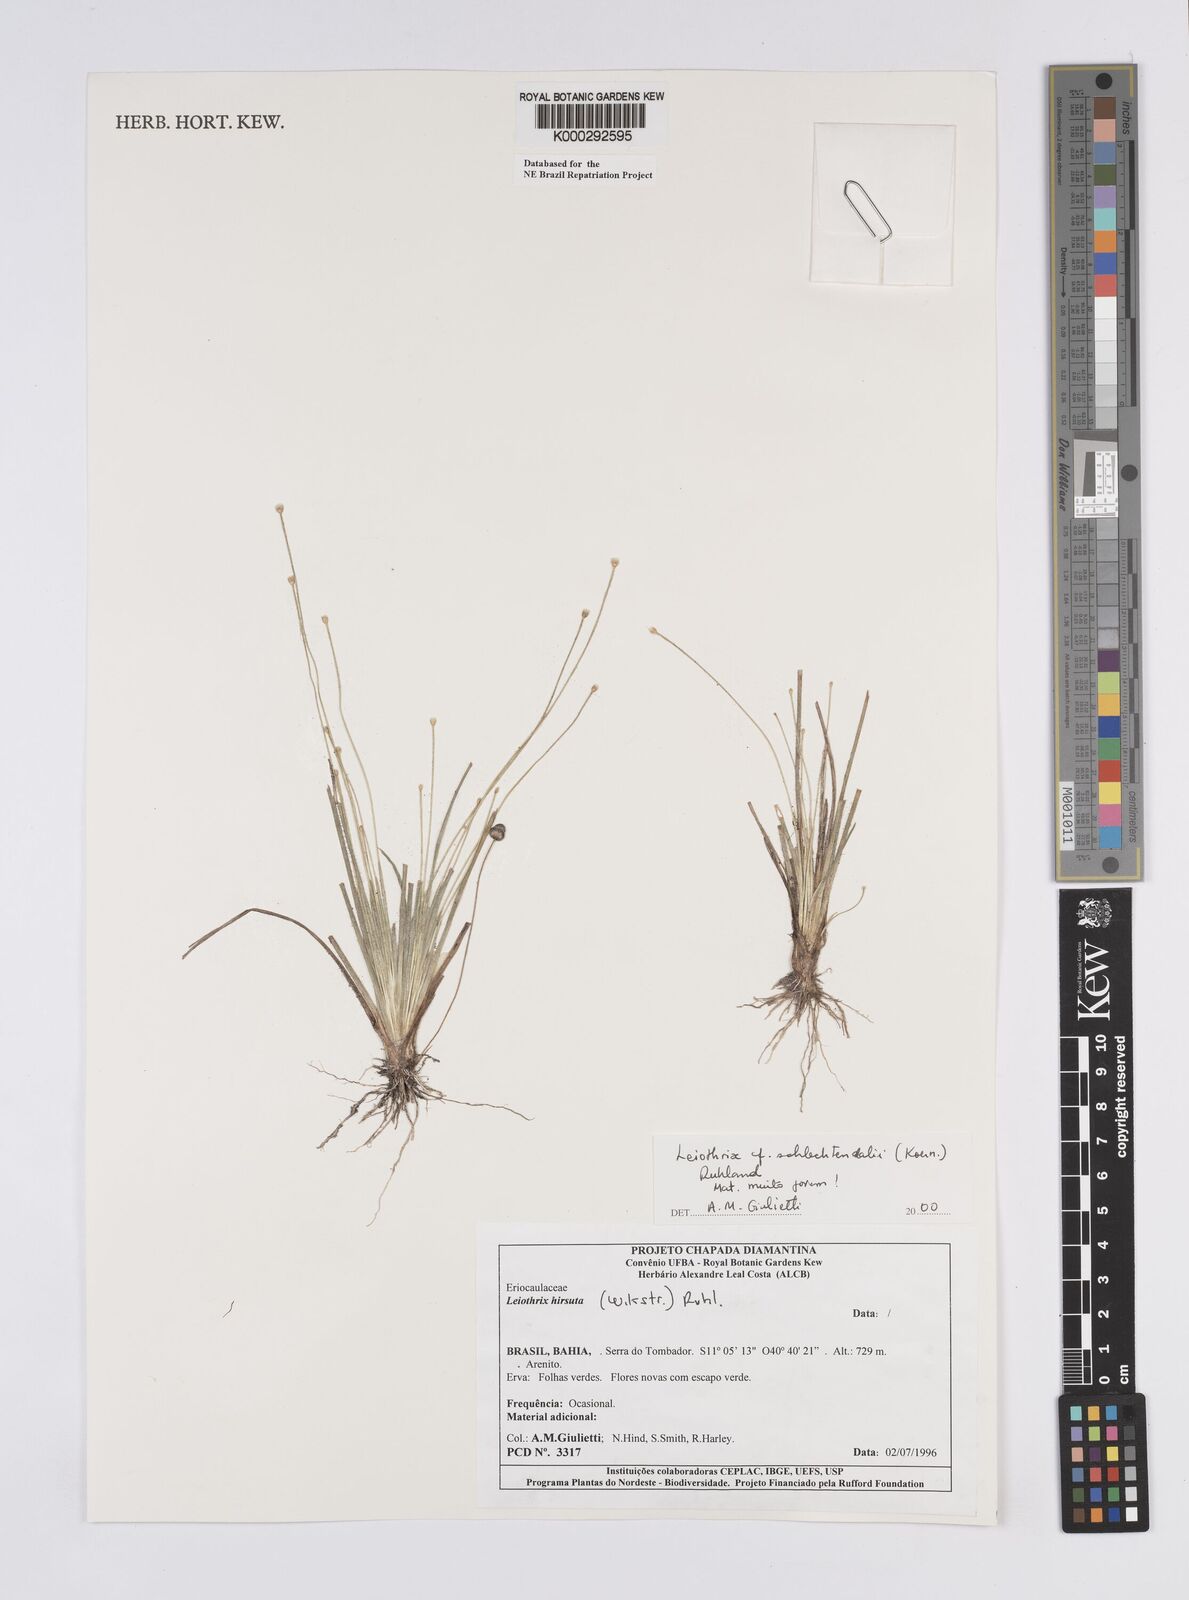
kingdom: Plantae
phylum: Tracheophyta
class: Liliopsida
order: Poales
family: Eriocaulaceae
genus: Leiothrix
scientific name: Leiothrix schlechtendalii
